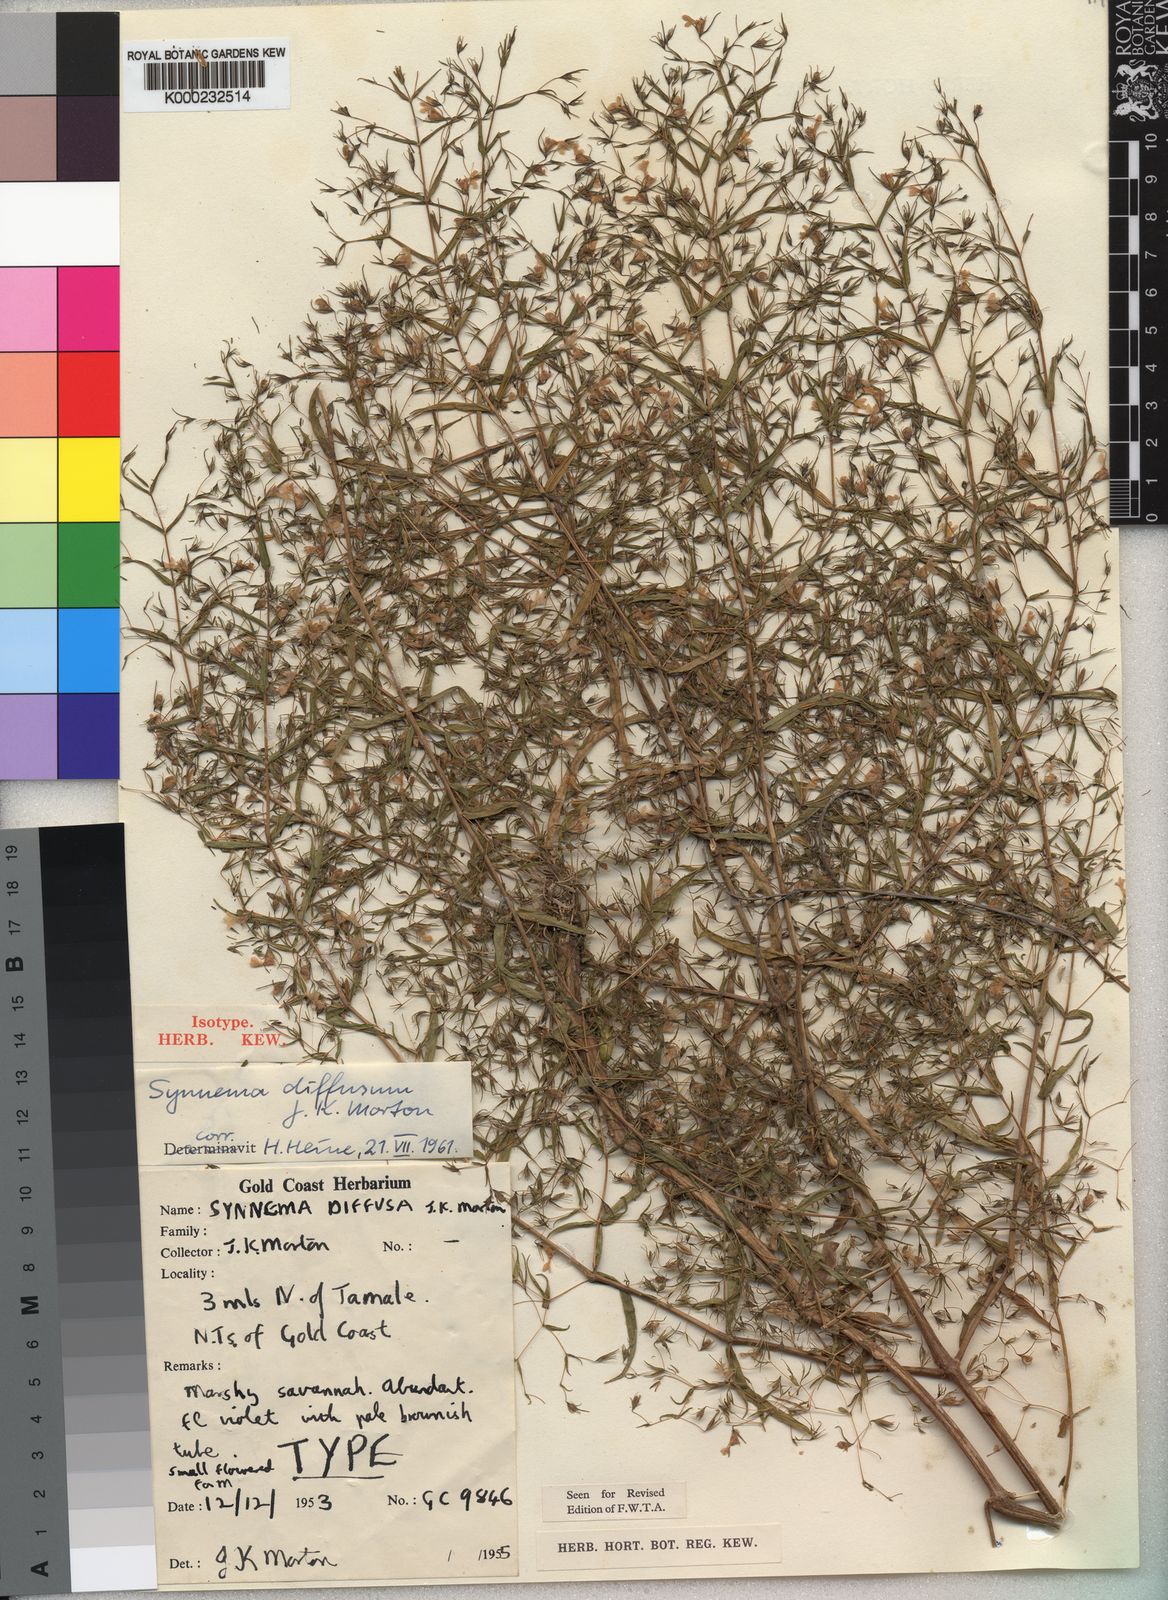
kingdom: Plantae
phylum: Tracheophyta
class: Magnoliopsida
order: Lamiales
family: Acanthaceae
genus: Hygrophila
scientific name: Hygrophila borellii
